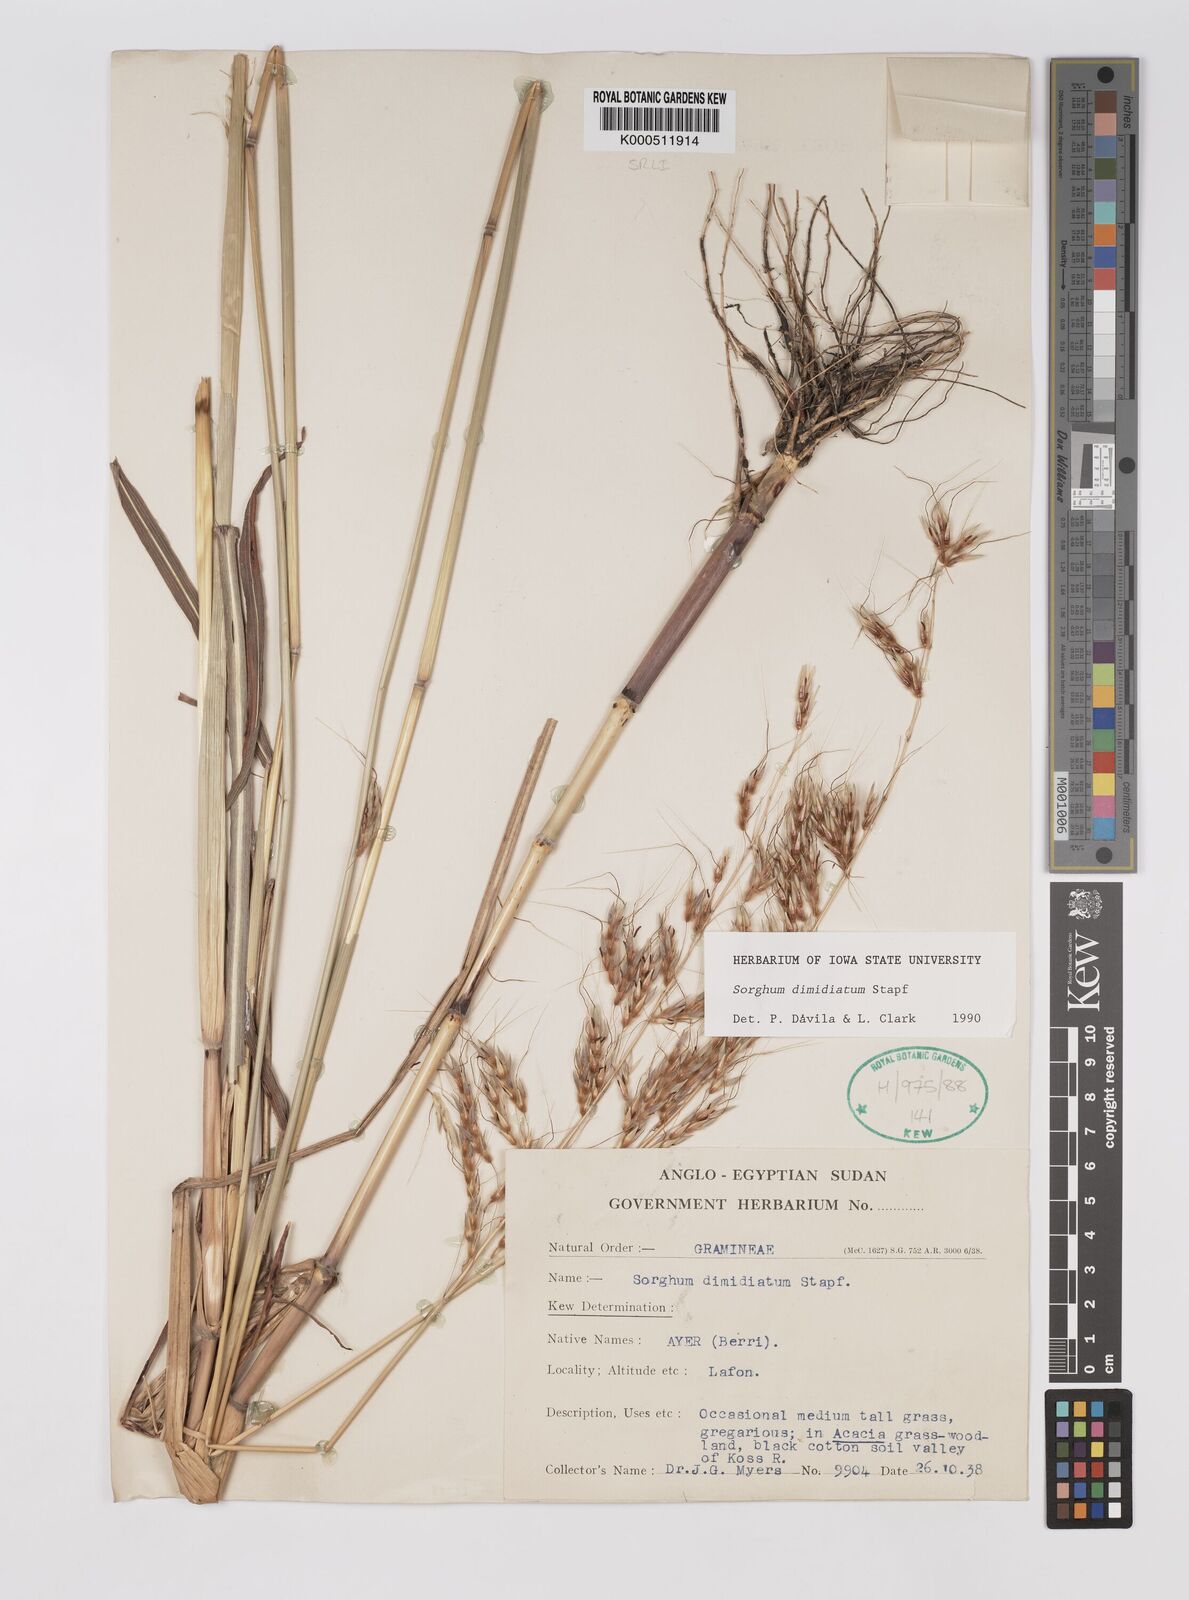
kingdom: Plantae
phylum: Tracheophyta
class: Liliopsida
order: Poales
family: Poaceae
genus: Sarga
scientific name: Sarga purpureosericea
